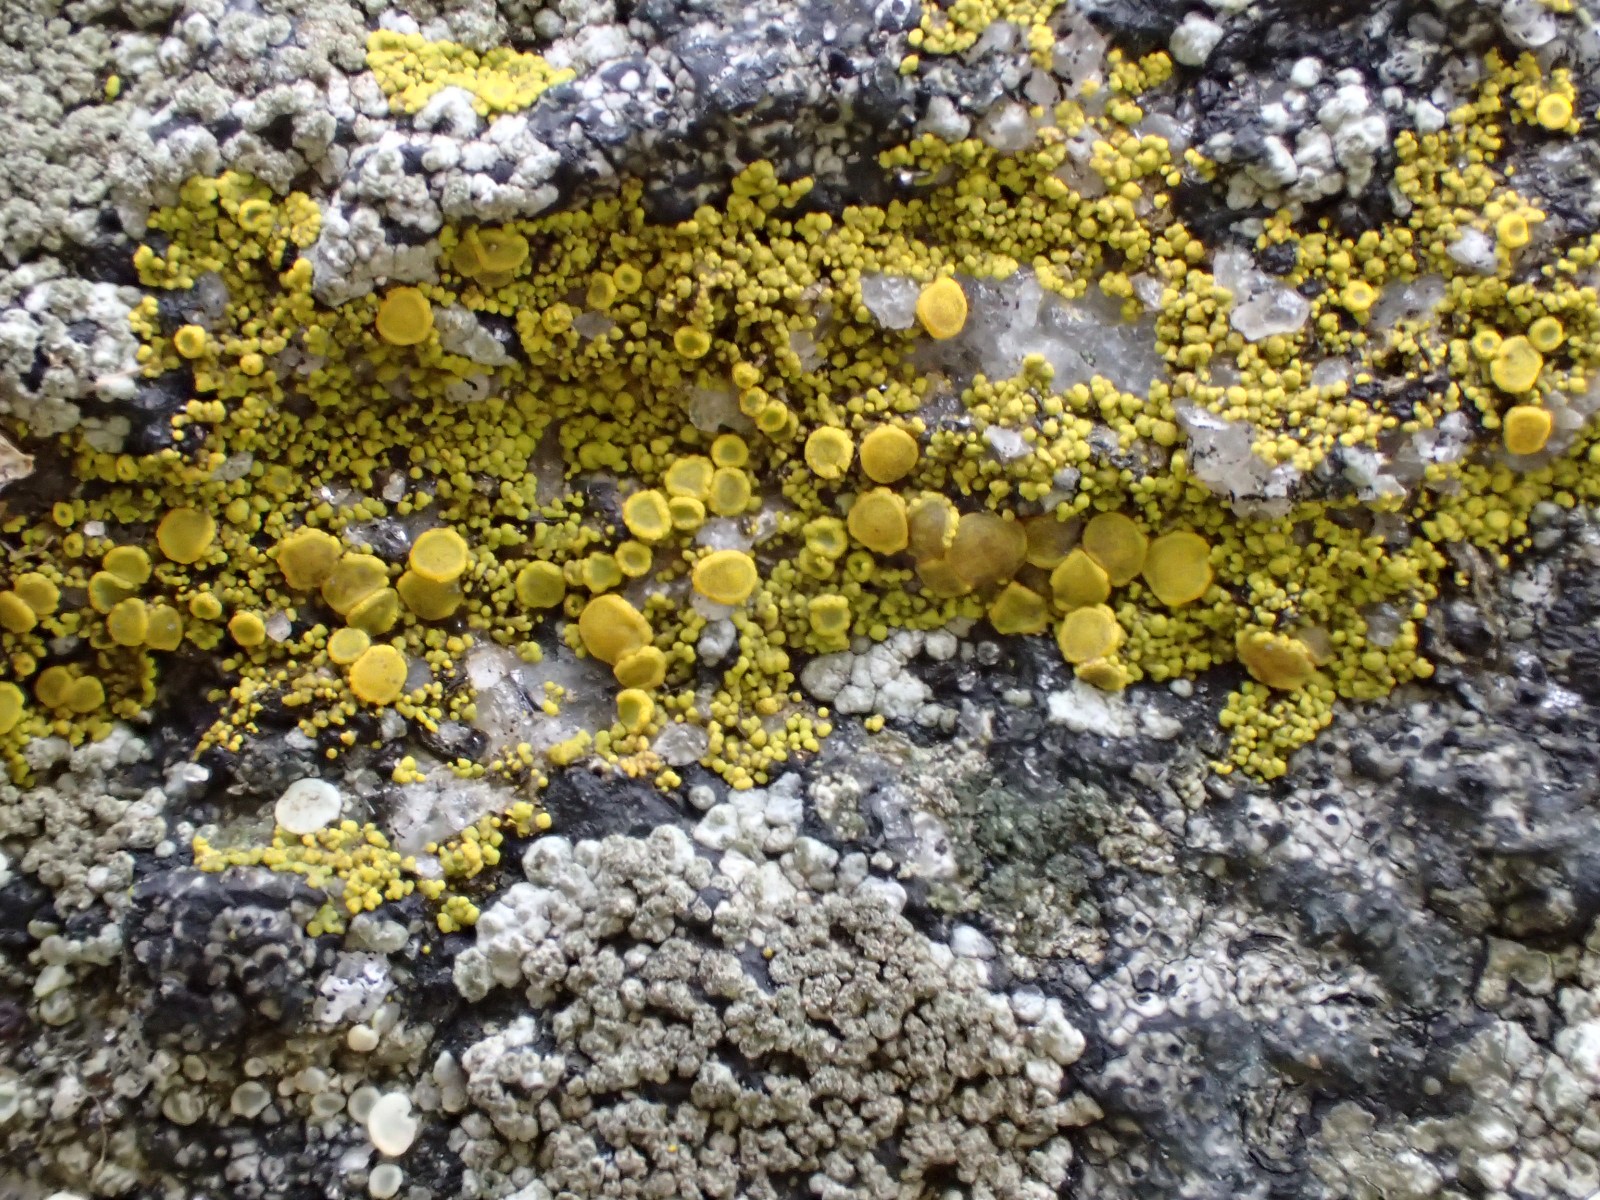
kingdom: Fungi
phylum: Ascomycota
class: Candelariomycetes
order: Candelariales
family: Candelariaceae
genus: Candelariella
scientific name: Candelariella vitellina
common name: almindelig æggeblommelav
